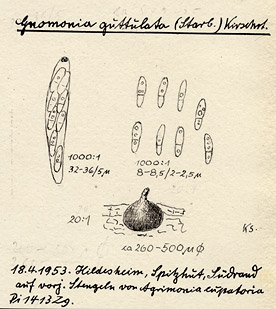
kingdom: Fungi
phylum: Ascomycota
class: Sordariomycetes
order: Diaporthales
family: Gnomoniaceae
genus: Gnomoniopsis
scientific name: Gnomoniopsis comari
